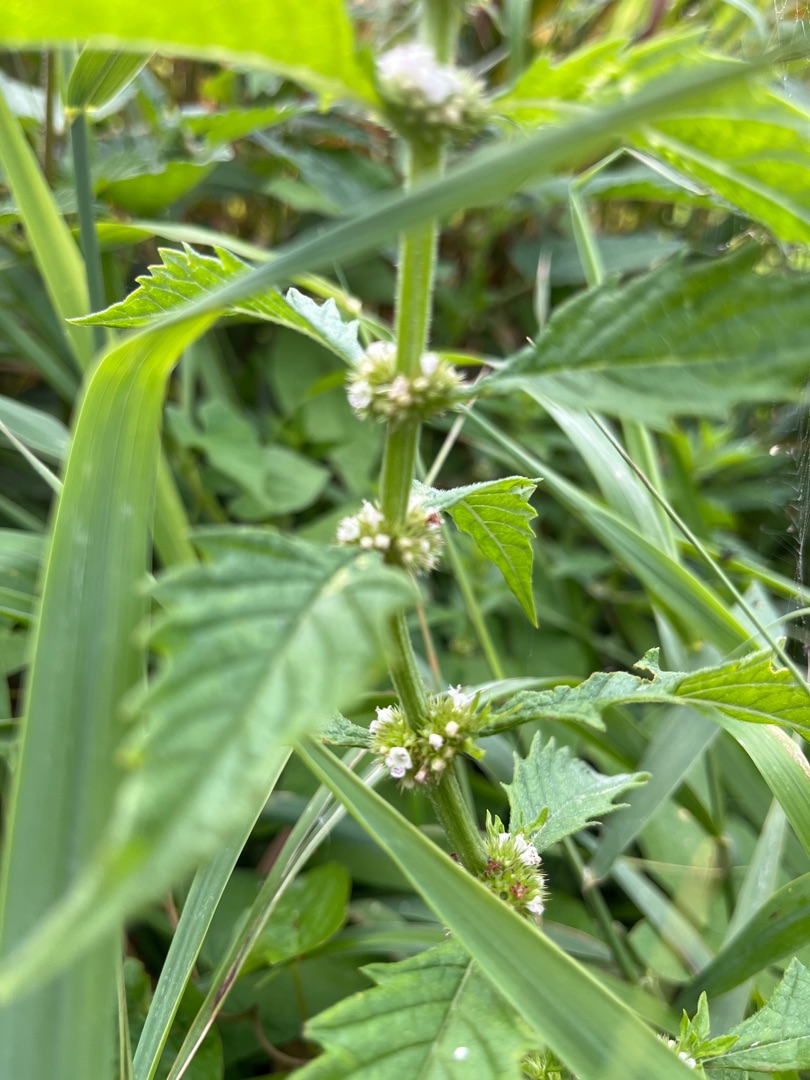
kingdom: Plantae
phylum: Tracheophyta
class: Magnoliopsida
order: Lamiales
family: Lamiaceae
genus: Lycopus
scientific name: Lycopus europaeus
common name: Sværtevæld
